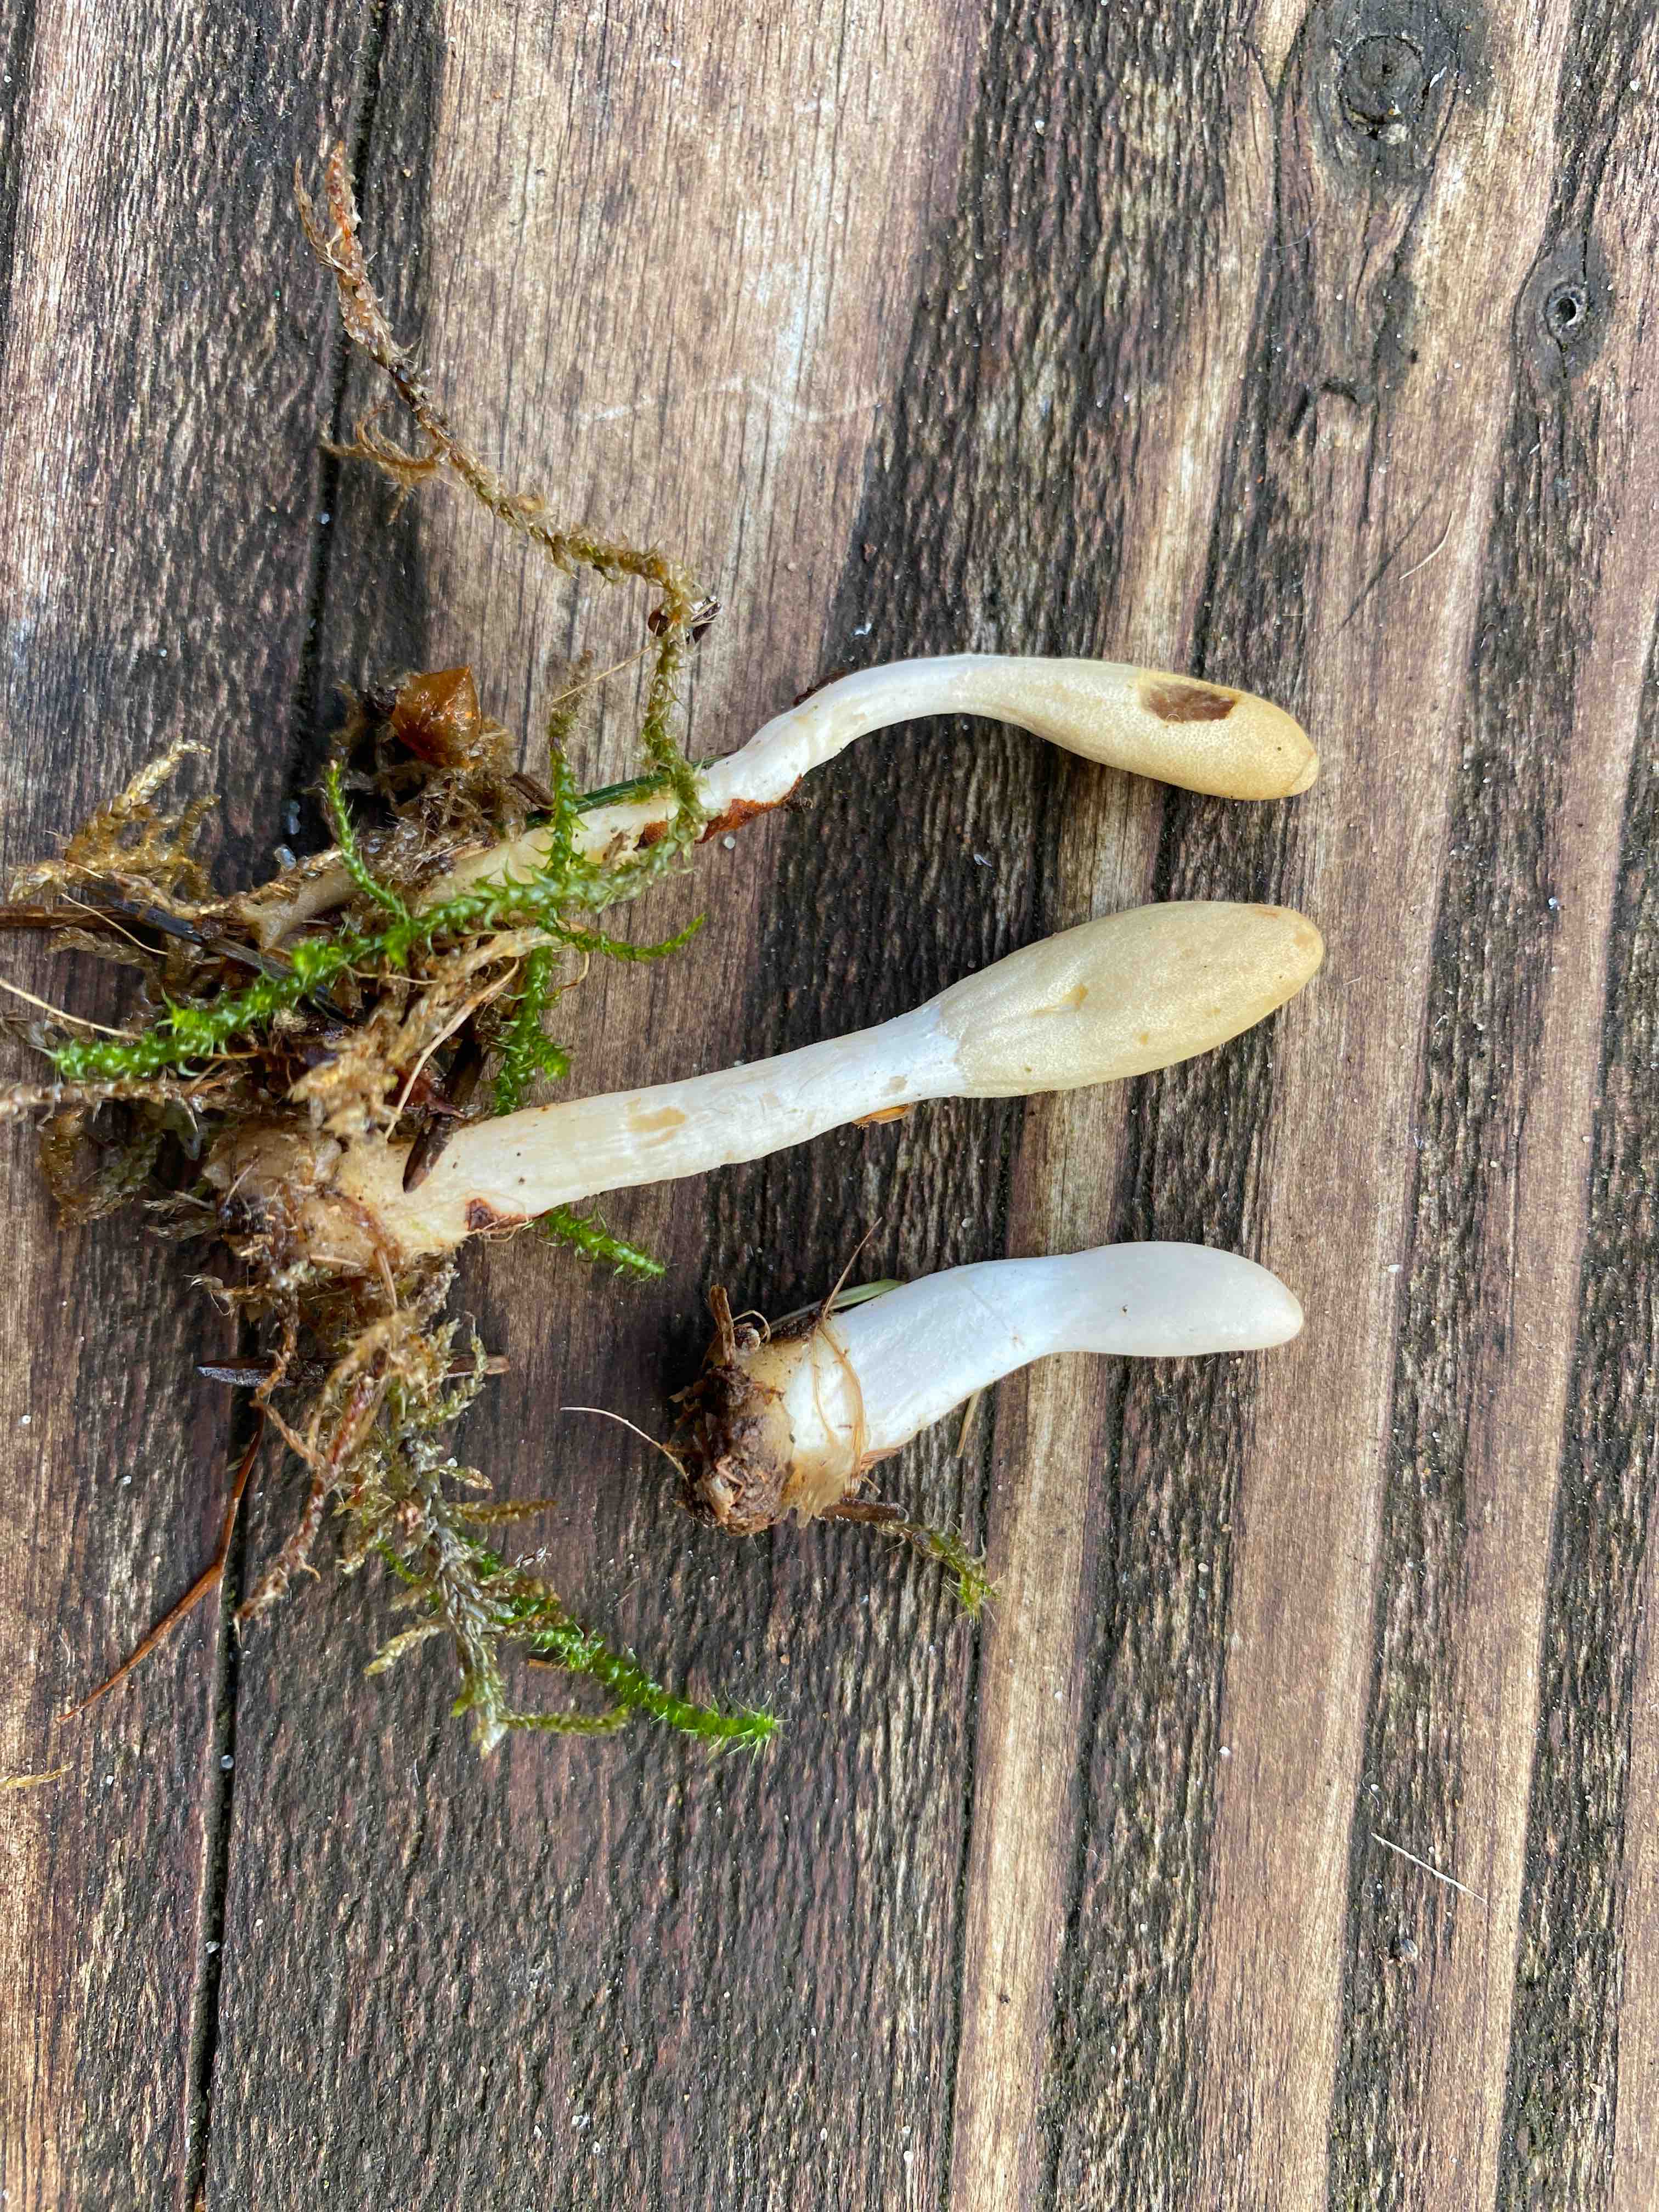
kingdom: Fungi
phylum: Ascomycota
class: Sordariomycetes
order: Hypocreales
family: Hypocreaceae
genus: Trichoderma
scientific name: Trichoderma leucopus
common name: lysstokket kødkerne
